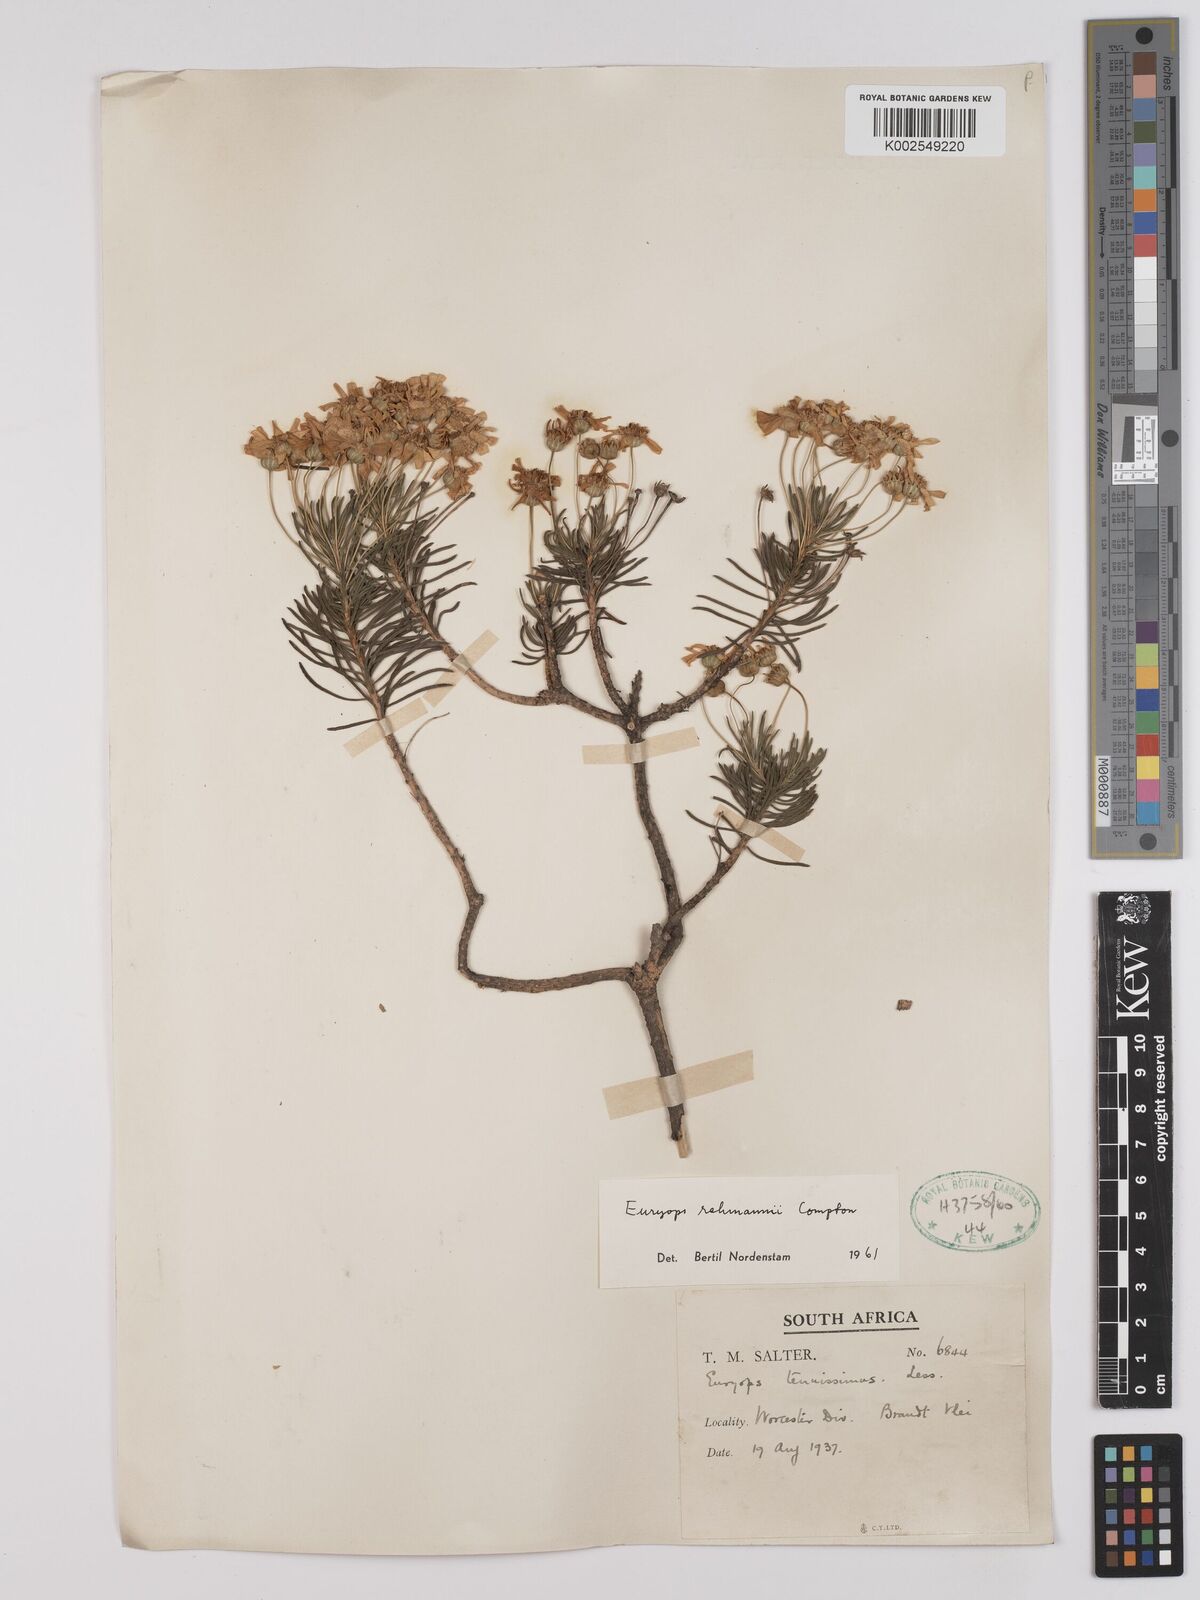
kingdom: Plantae
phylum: Tracheophyta
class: Magnoliopsida
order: Asterales
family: Asteraceae
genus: Euryops
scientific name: Euryops rehmannii
